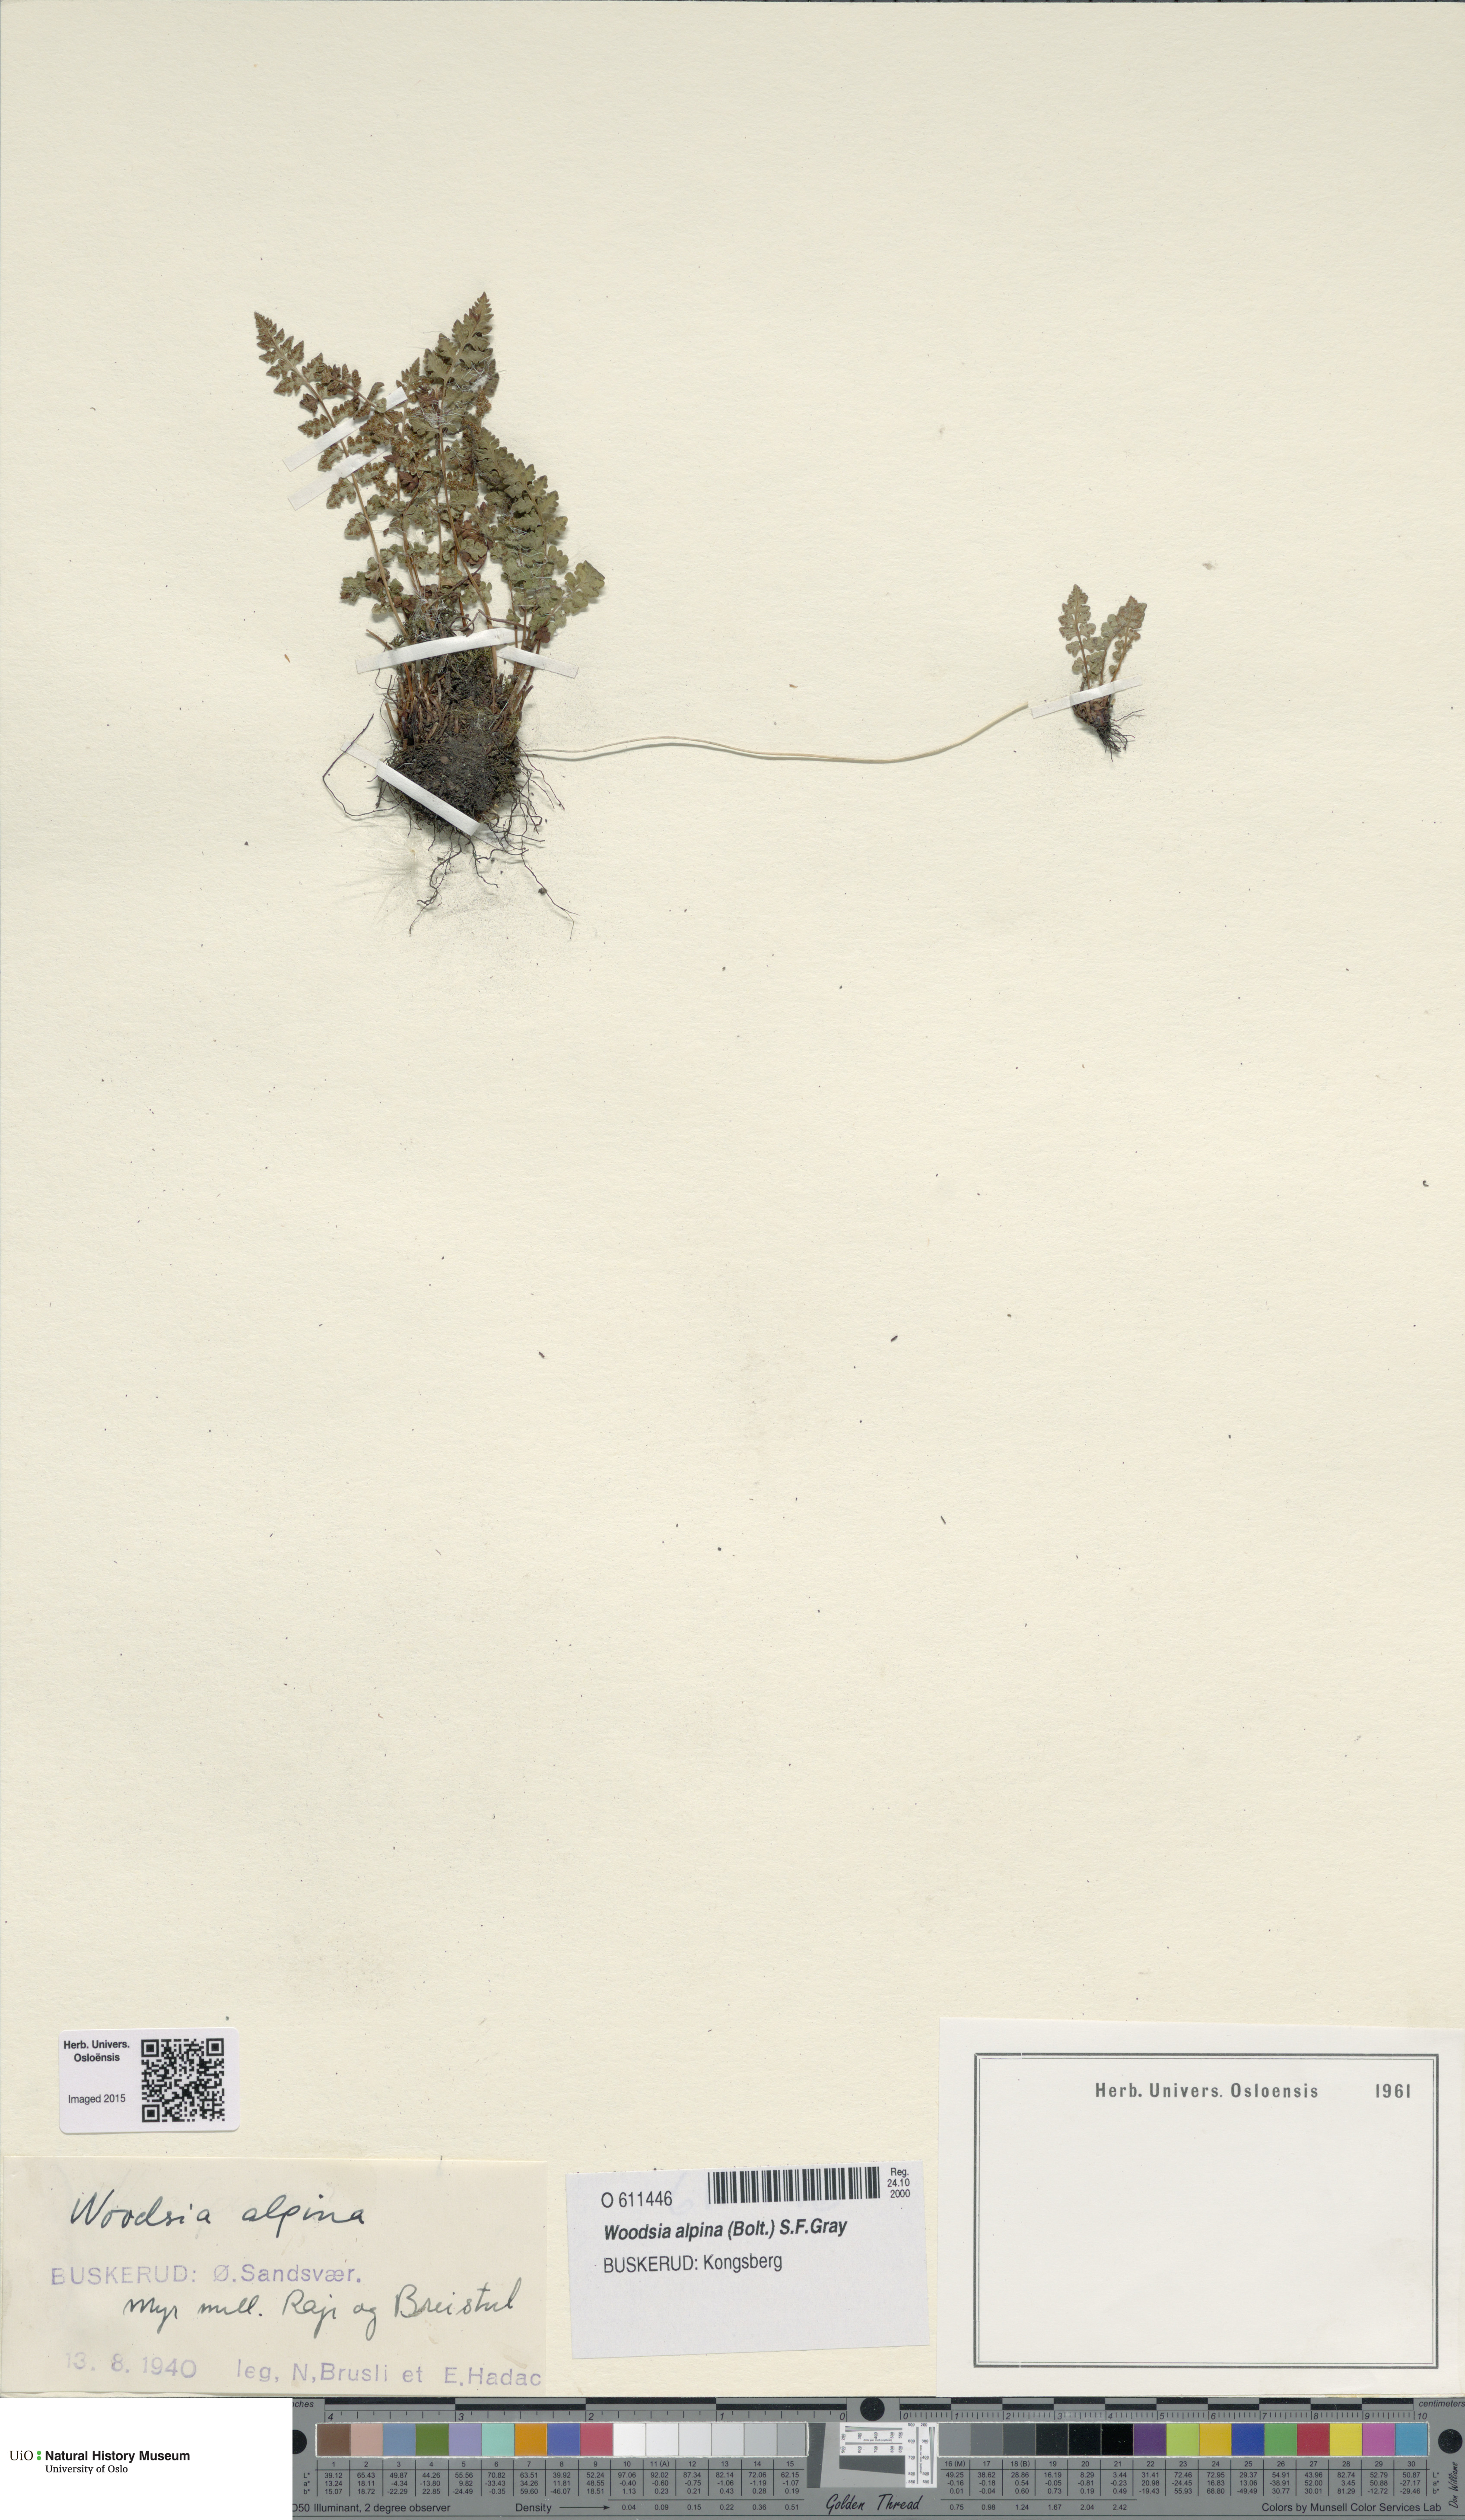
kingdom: Plantae
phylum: Tracheophyta
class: Polypodiopsida
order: Polypodiales
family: Woodsiaceae
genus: Woodsia
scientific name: Woodsia alpina
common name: Alpine woodsia
